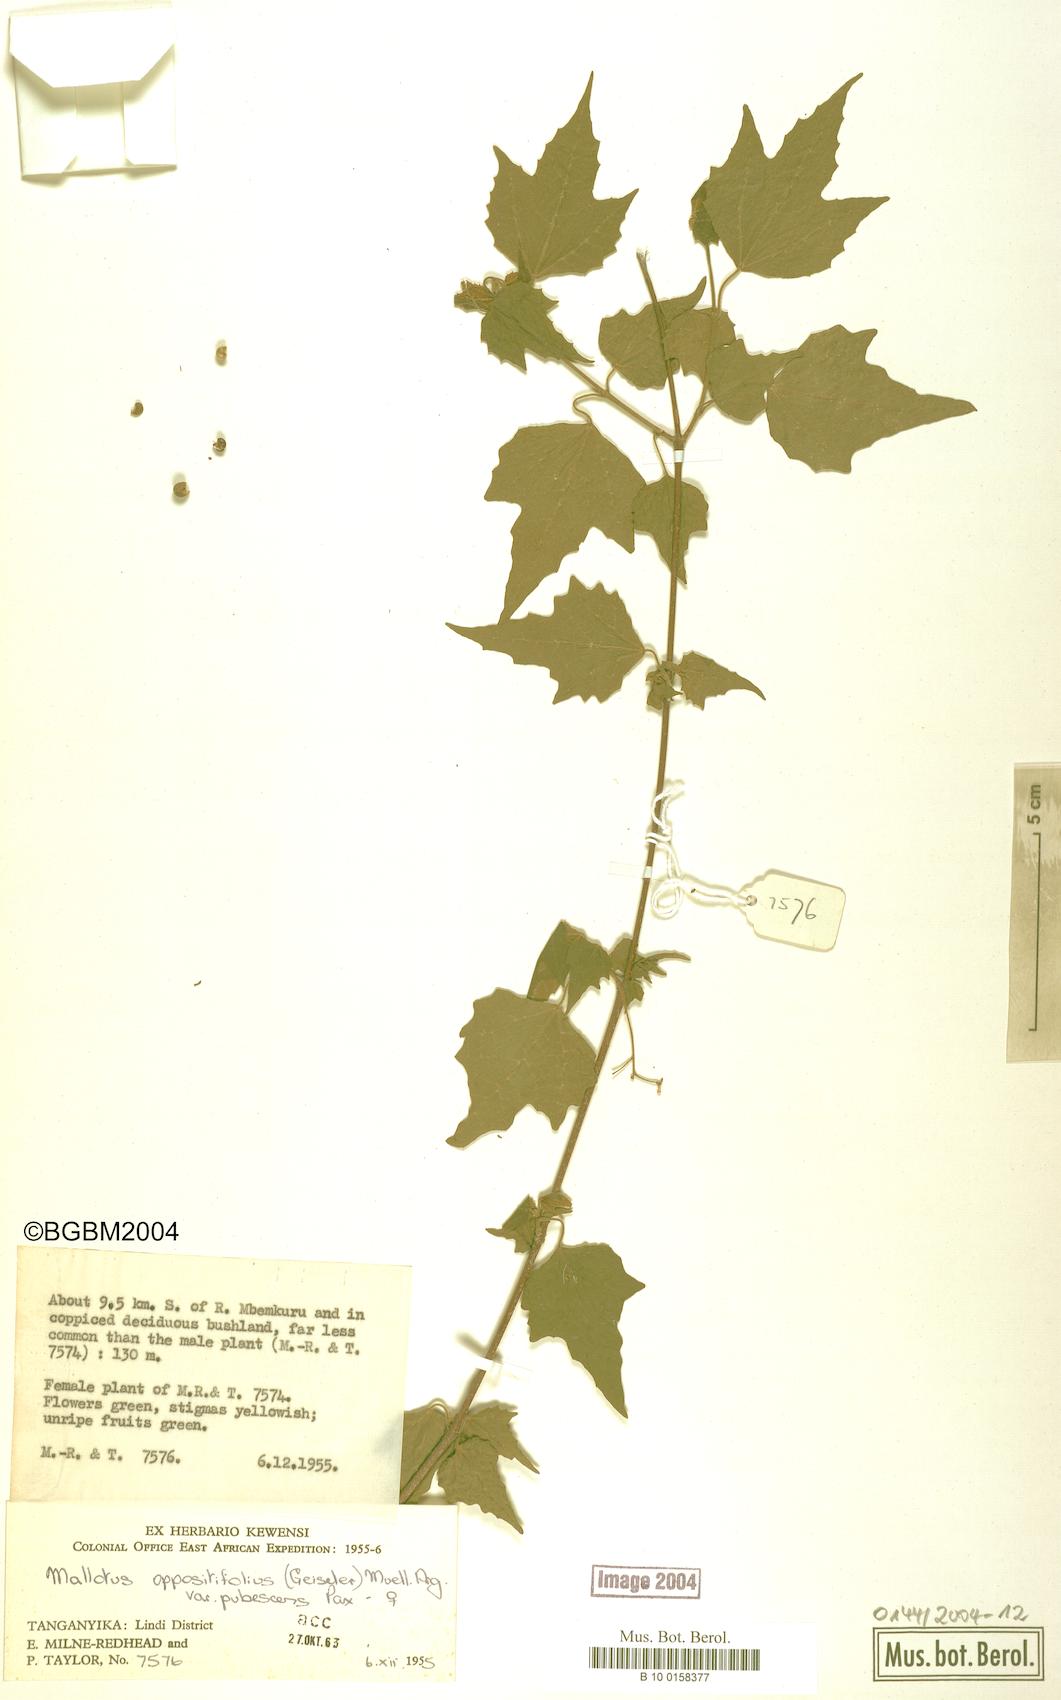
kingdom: Plantae
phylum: Tracheophyta
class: Magnoliopsida
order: Malpighiales
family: Euphorbiaceae
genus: Mallotus
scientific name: Mallotus oppositifolius
